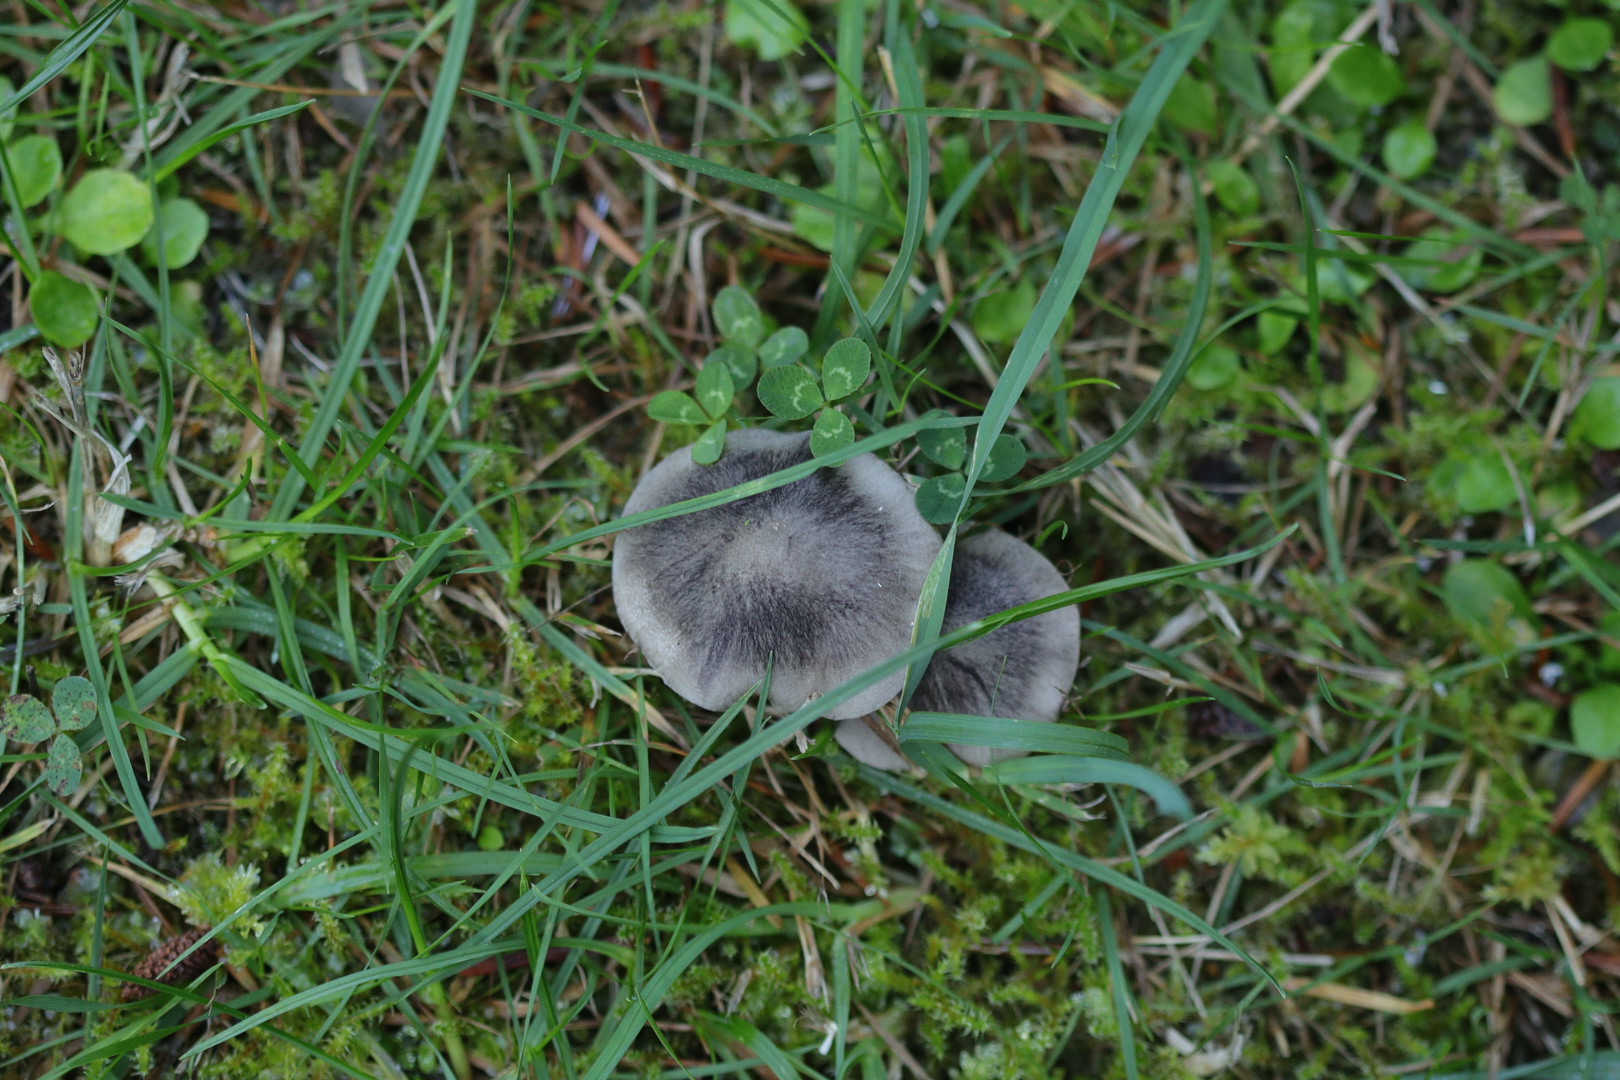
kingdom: Fungi
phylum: Basidiomycota
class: Agaricomycetes
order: Agaricales
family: Tricholomataceae
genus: Tricholoma
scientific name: Tricholoma
